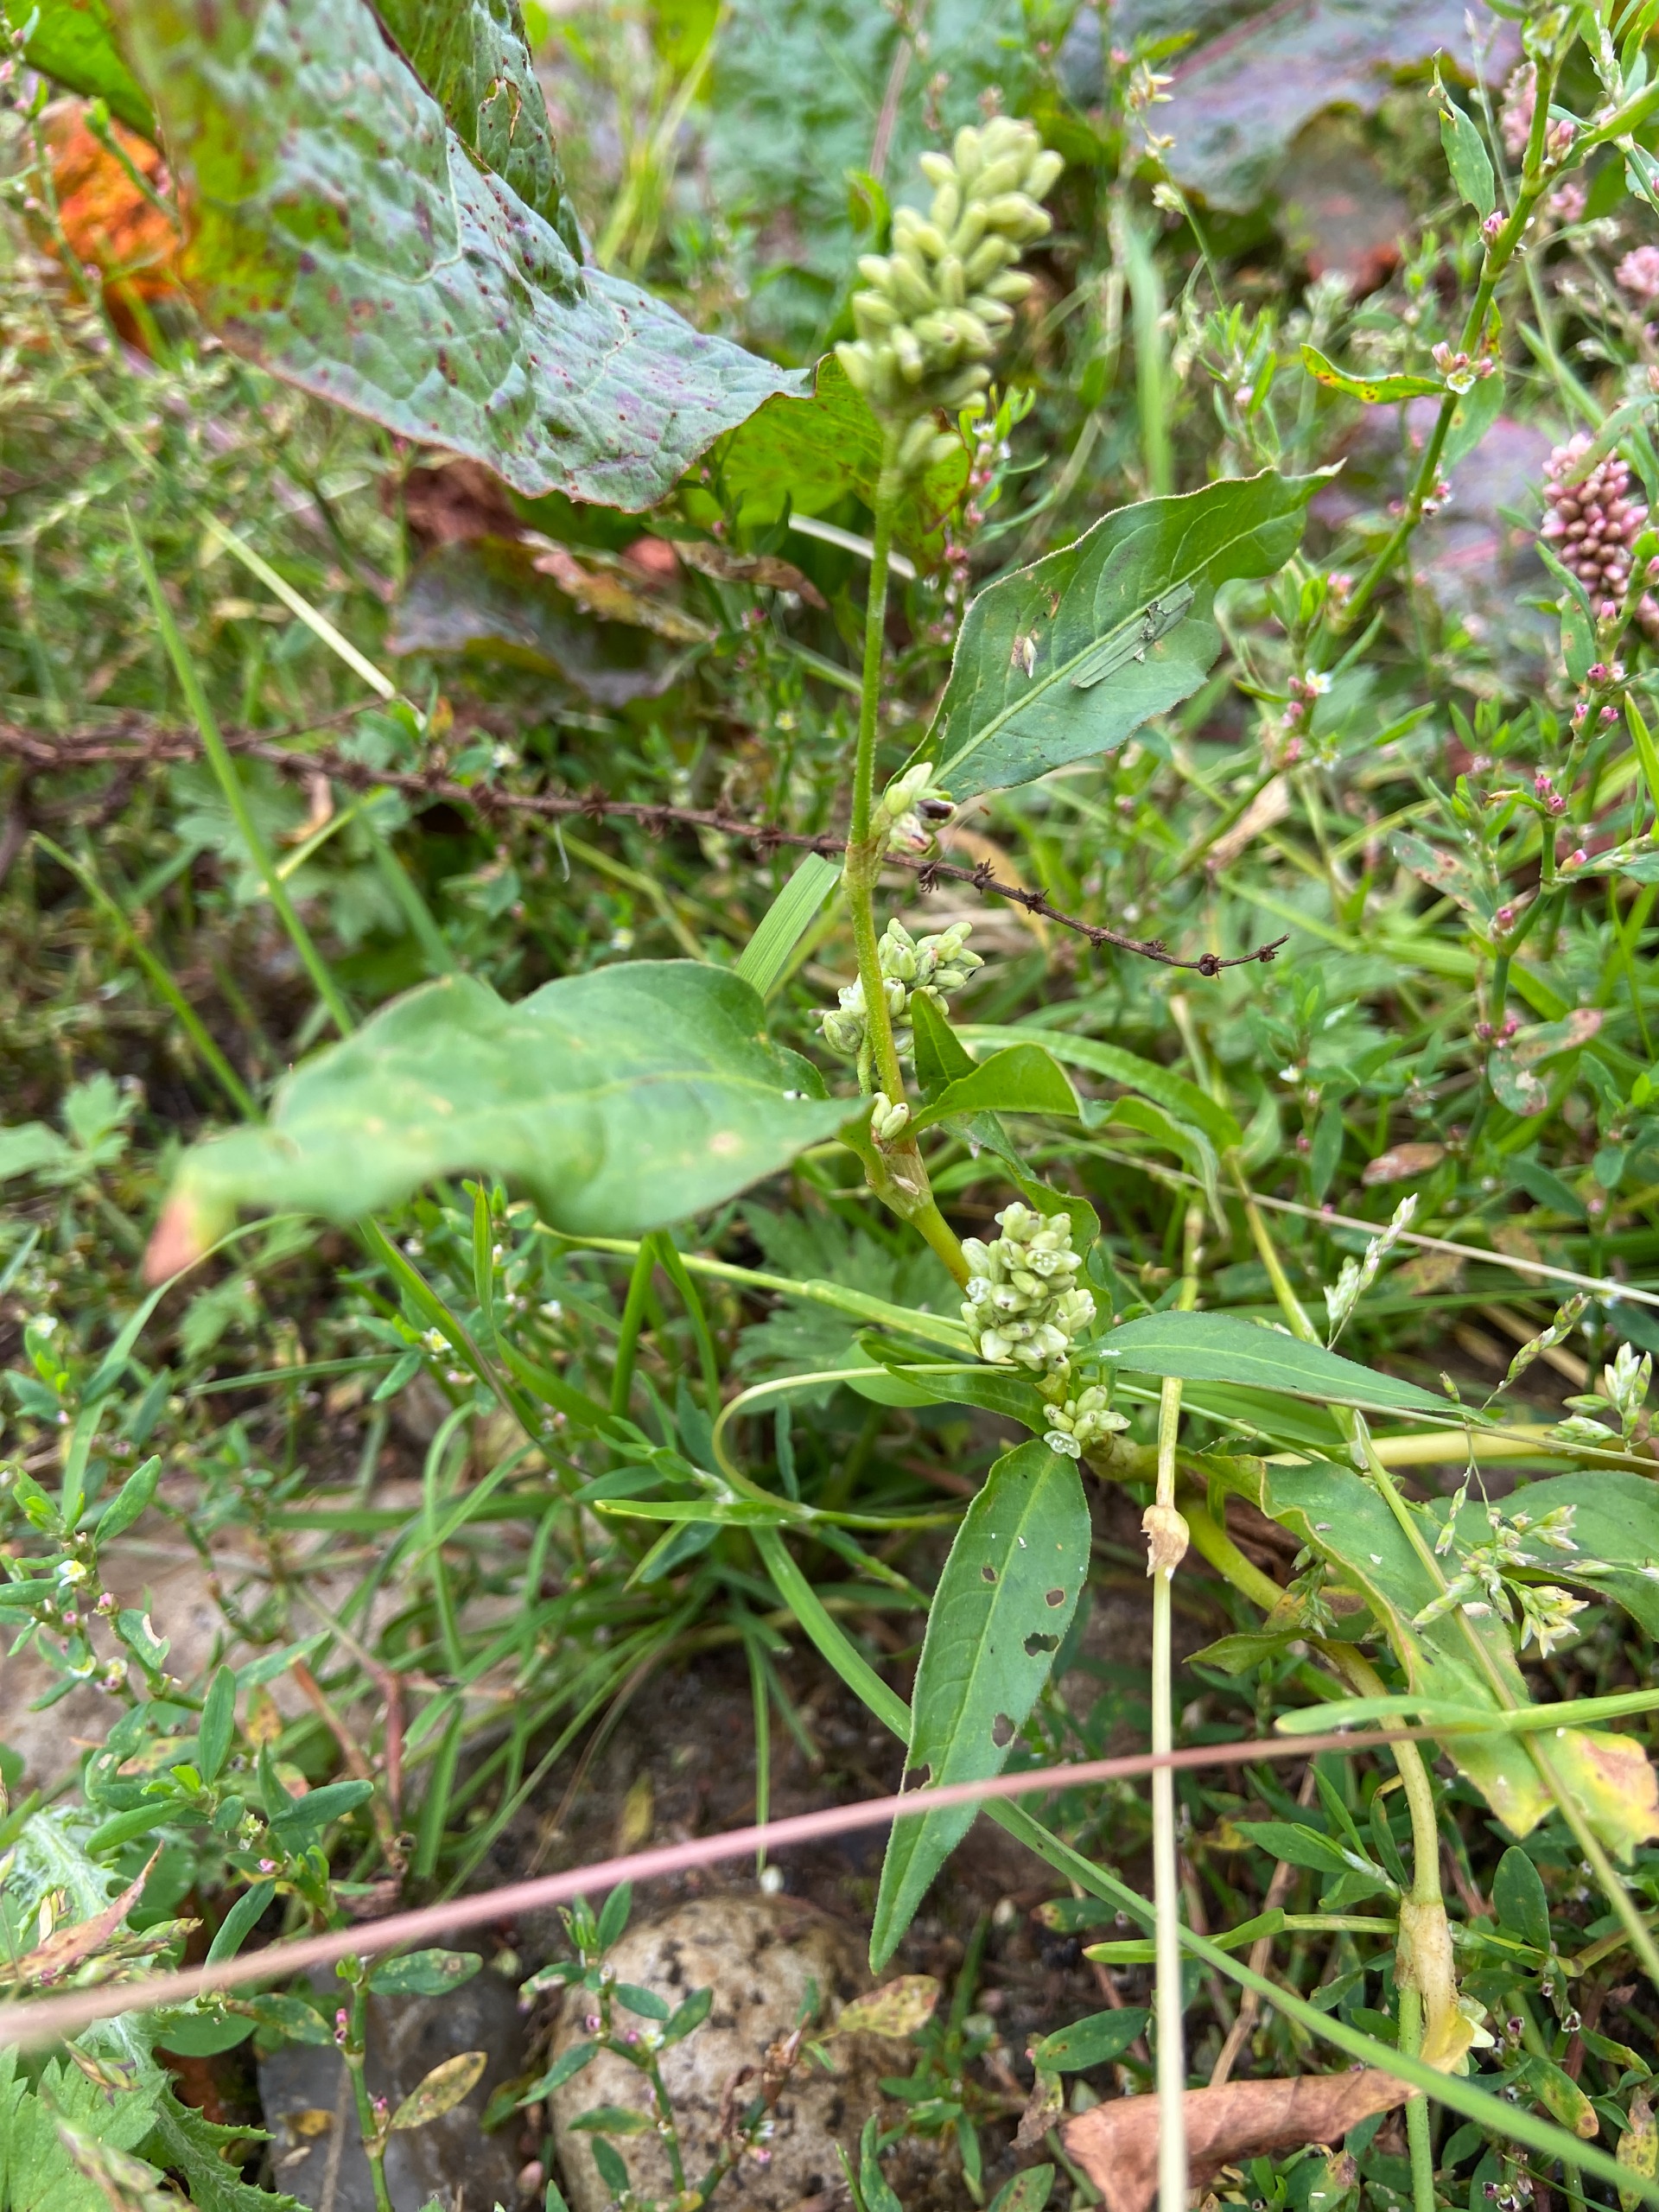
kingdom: Plantae
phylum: Tracheophyta
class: Magnoliopsida
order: Caryophyllales
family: Polygonaceae
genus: Persicaria
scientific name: Persicaria lapathifolia
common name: Bleg pileurt
